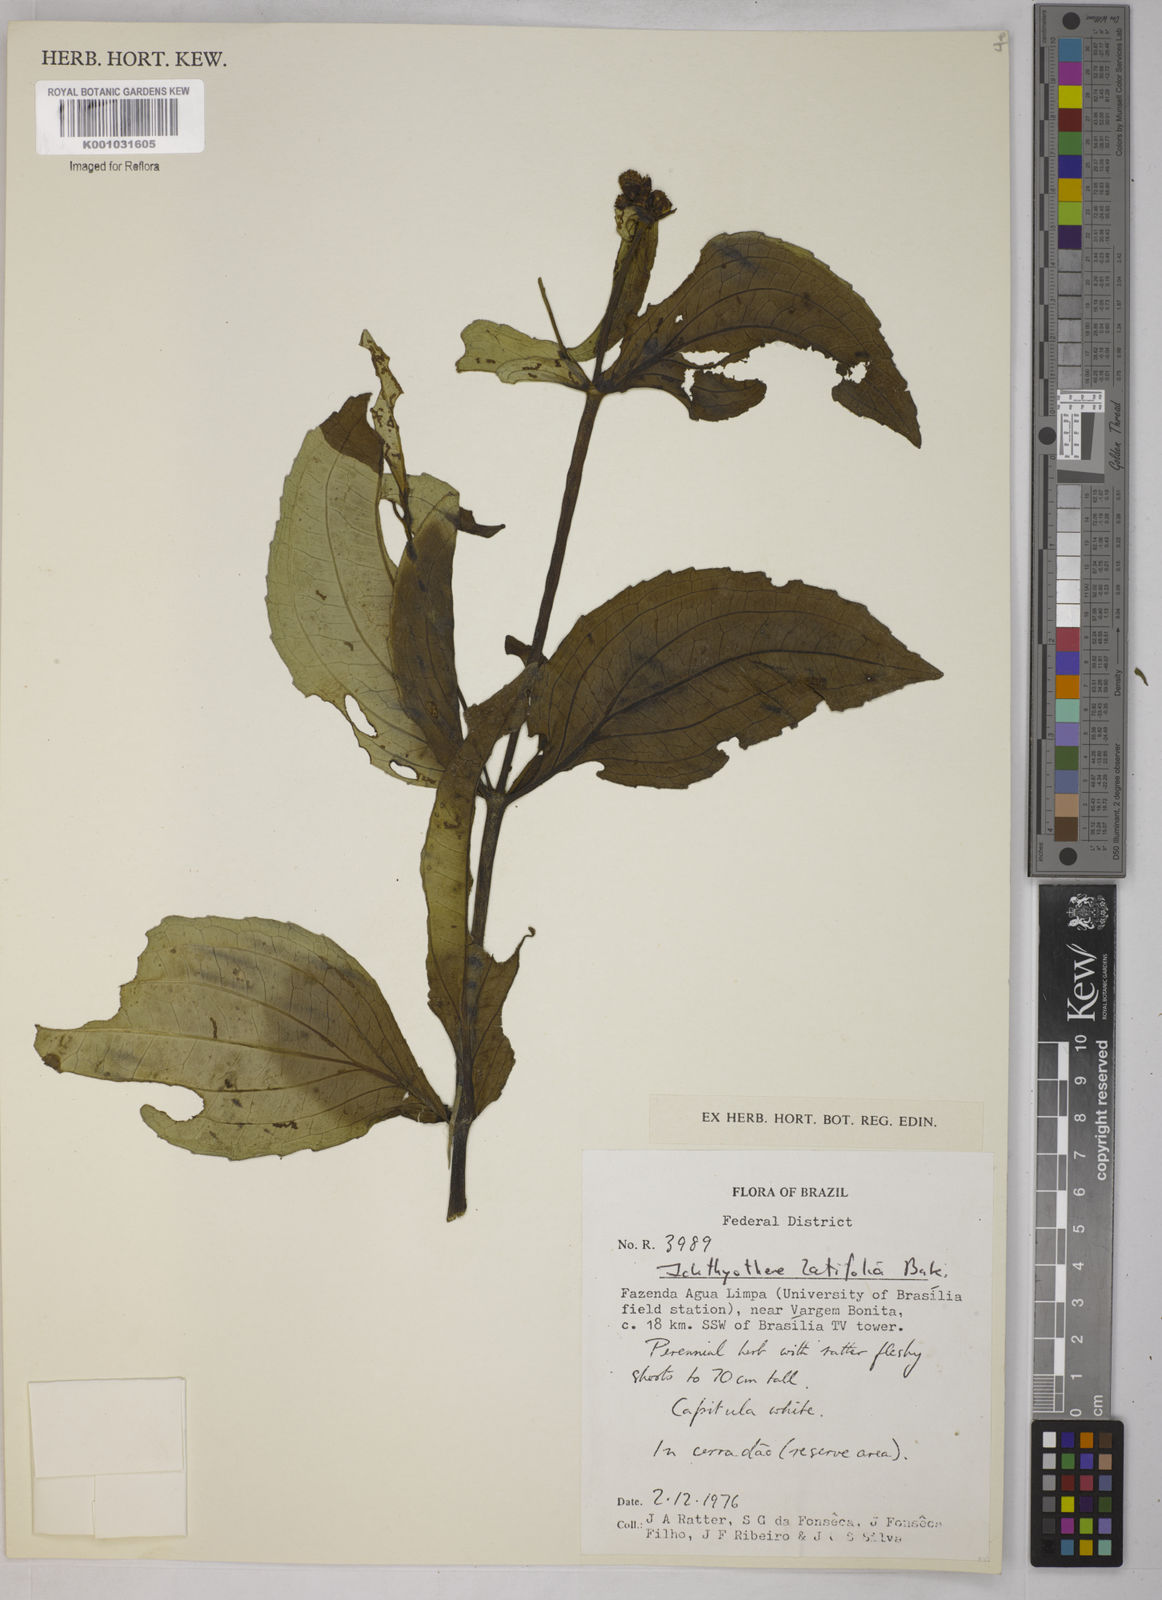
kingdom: Plantae
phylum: Tracheophyta
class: Magnoliopsida
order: Asterales
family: Asteraceae
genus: Ichthyothere
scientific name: Ichthyothere latifolia
